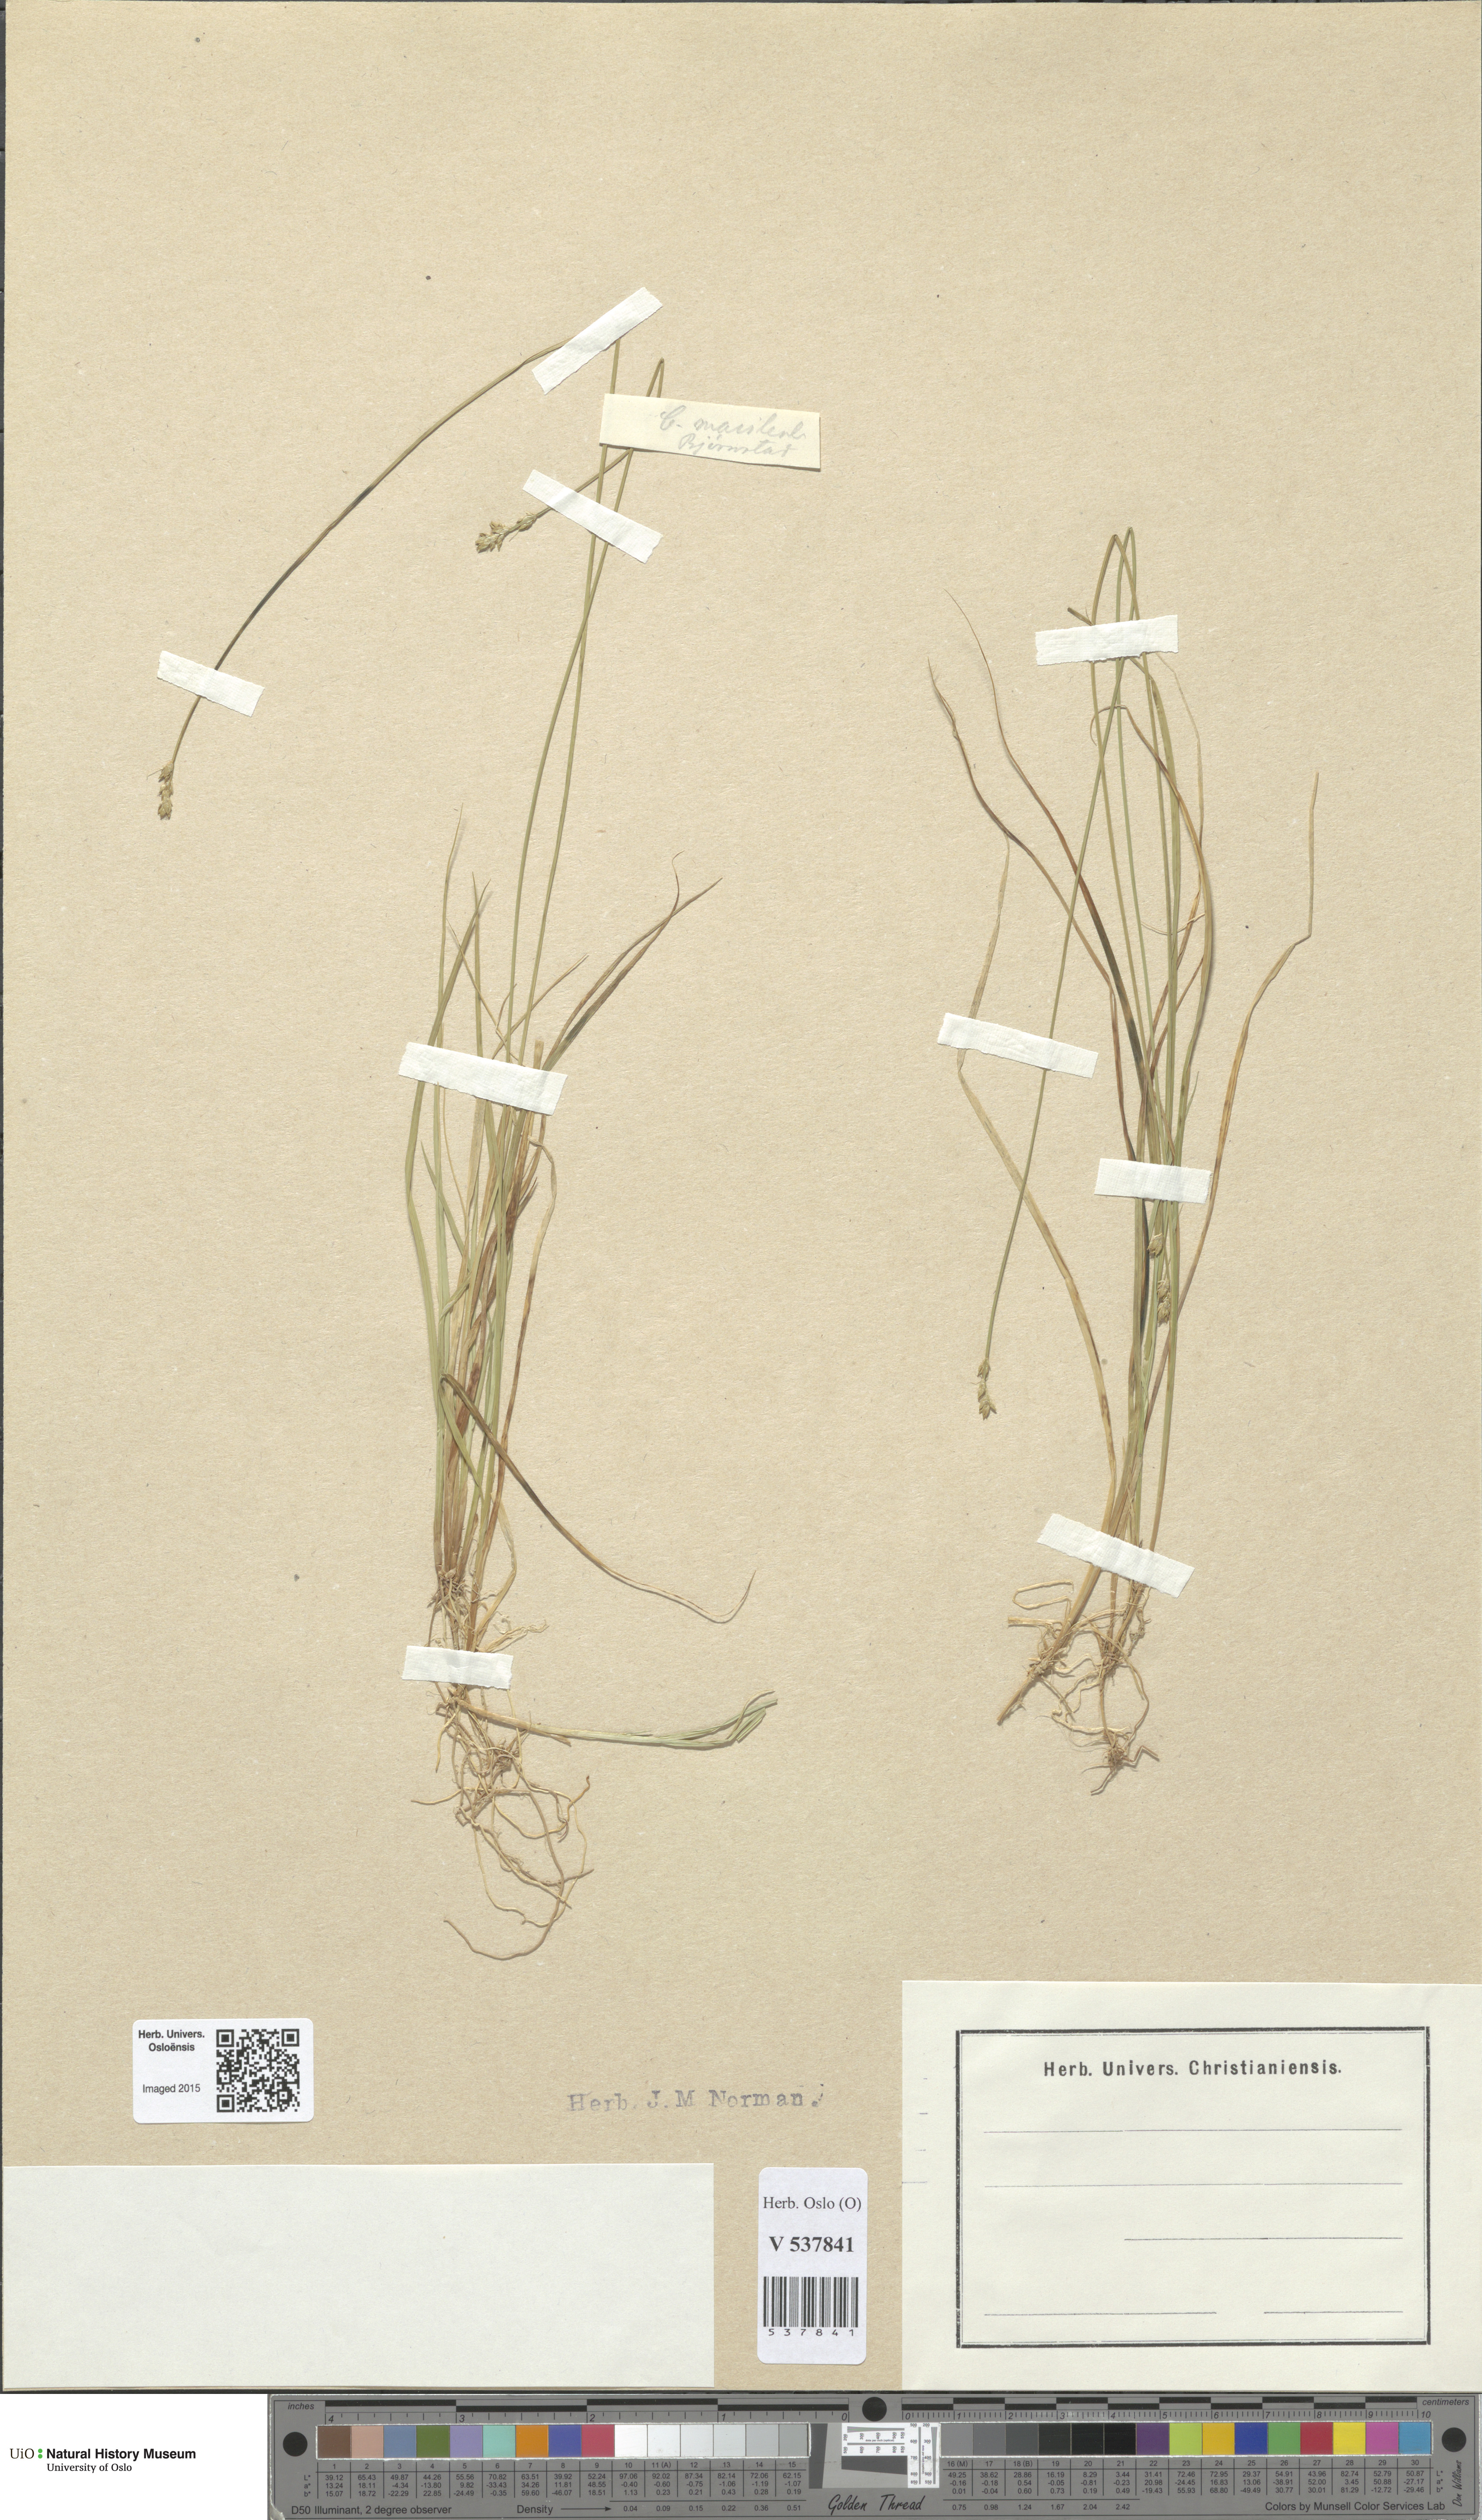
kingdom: Plantae
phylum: Tracheophyta
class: Liliopsida
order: Poales
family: Cyperaceae
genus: Carex
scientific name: Carex canescens
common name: White sedge
